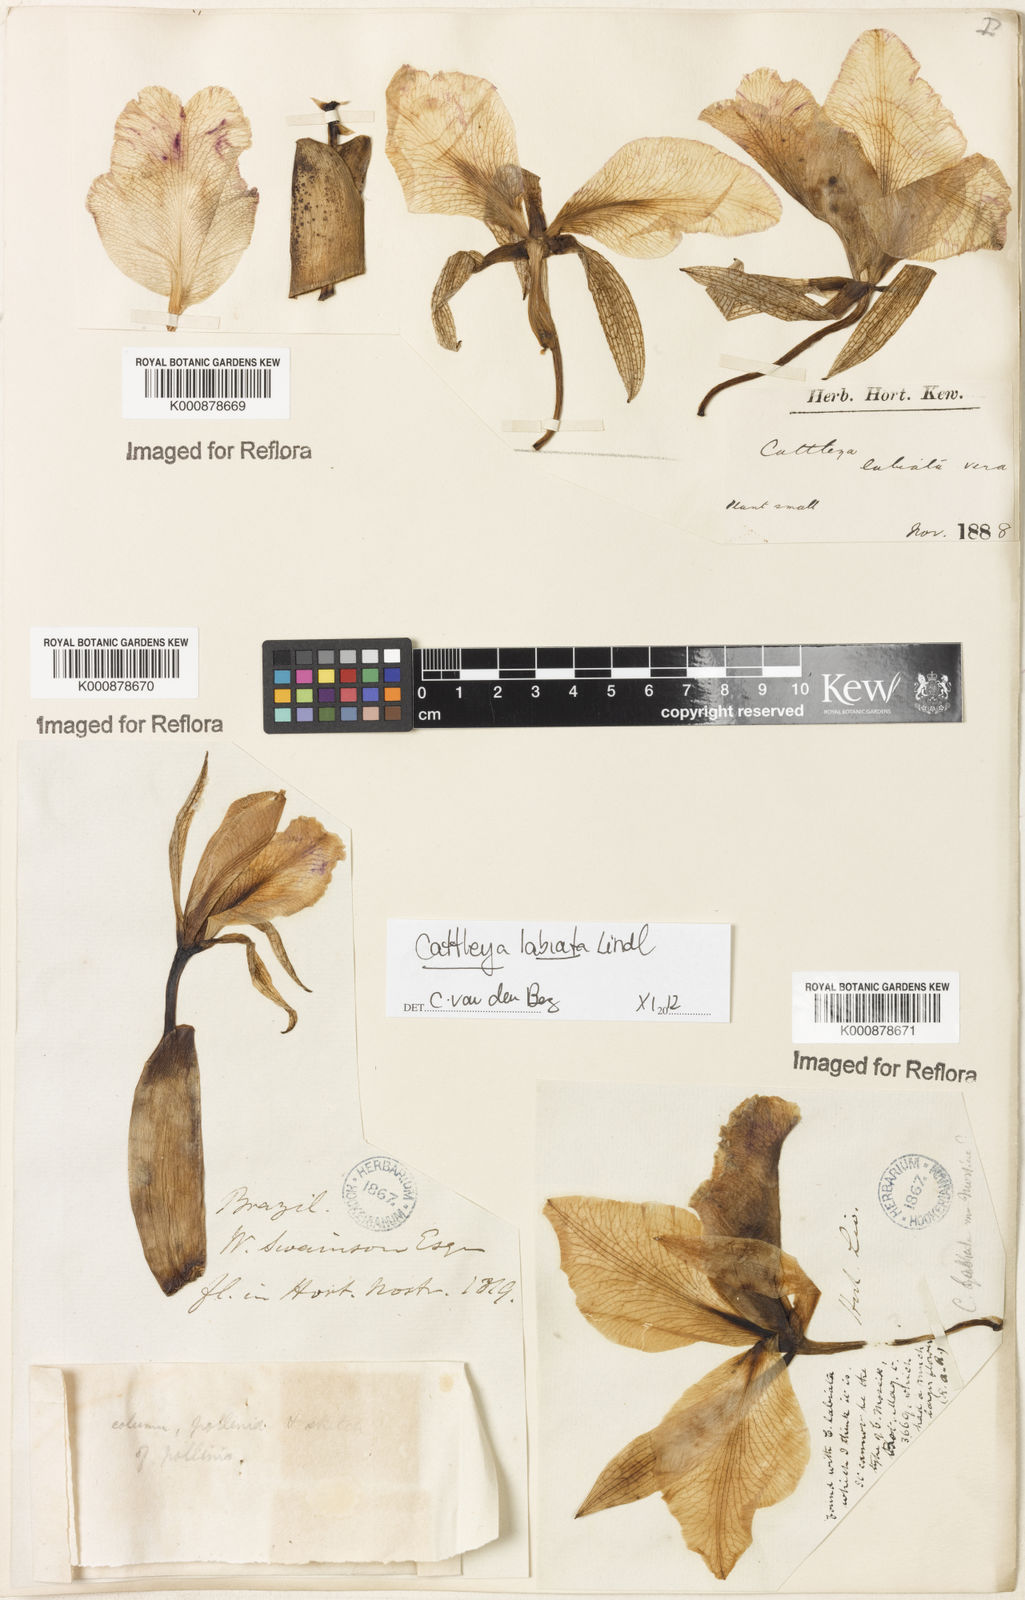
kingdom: Plantae
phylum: Tracheophyta
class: Liliopsida
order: Asparagales
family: Orchidaceae
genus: Cattleya
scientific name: Cattleya labiata
